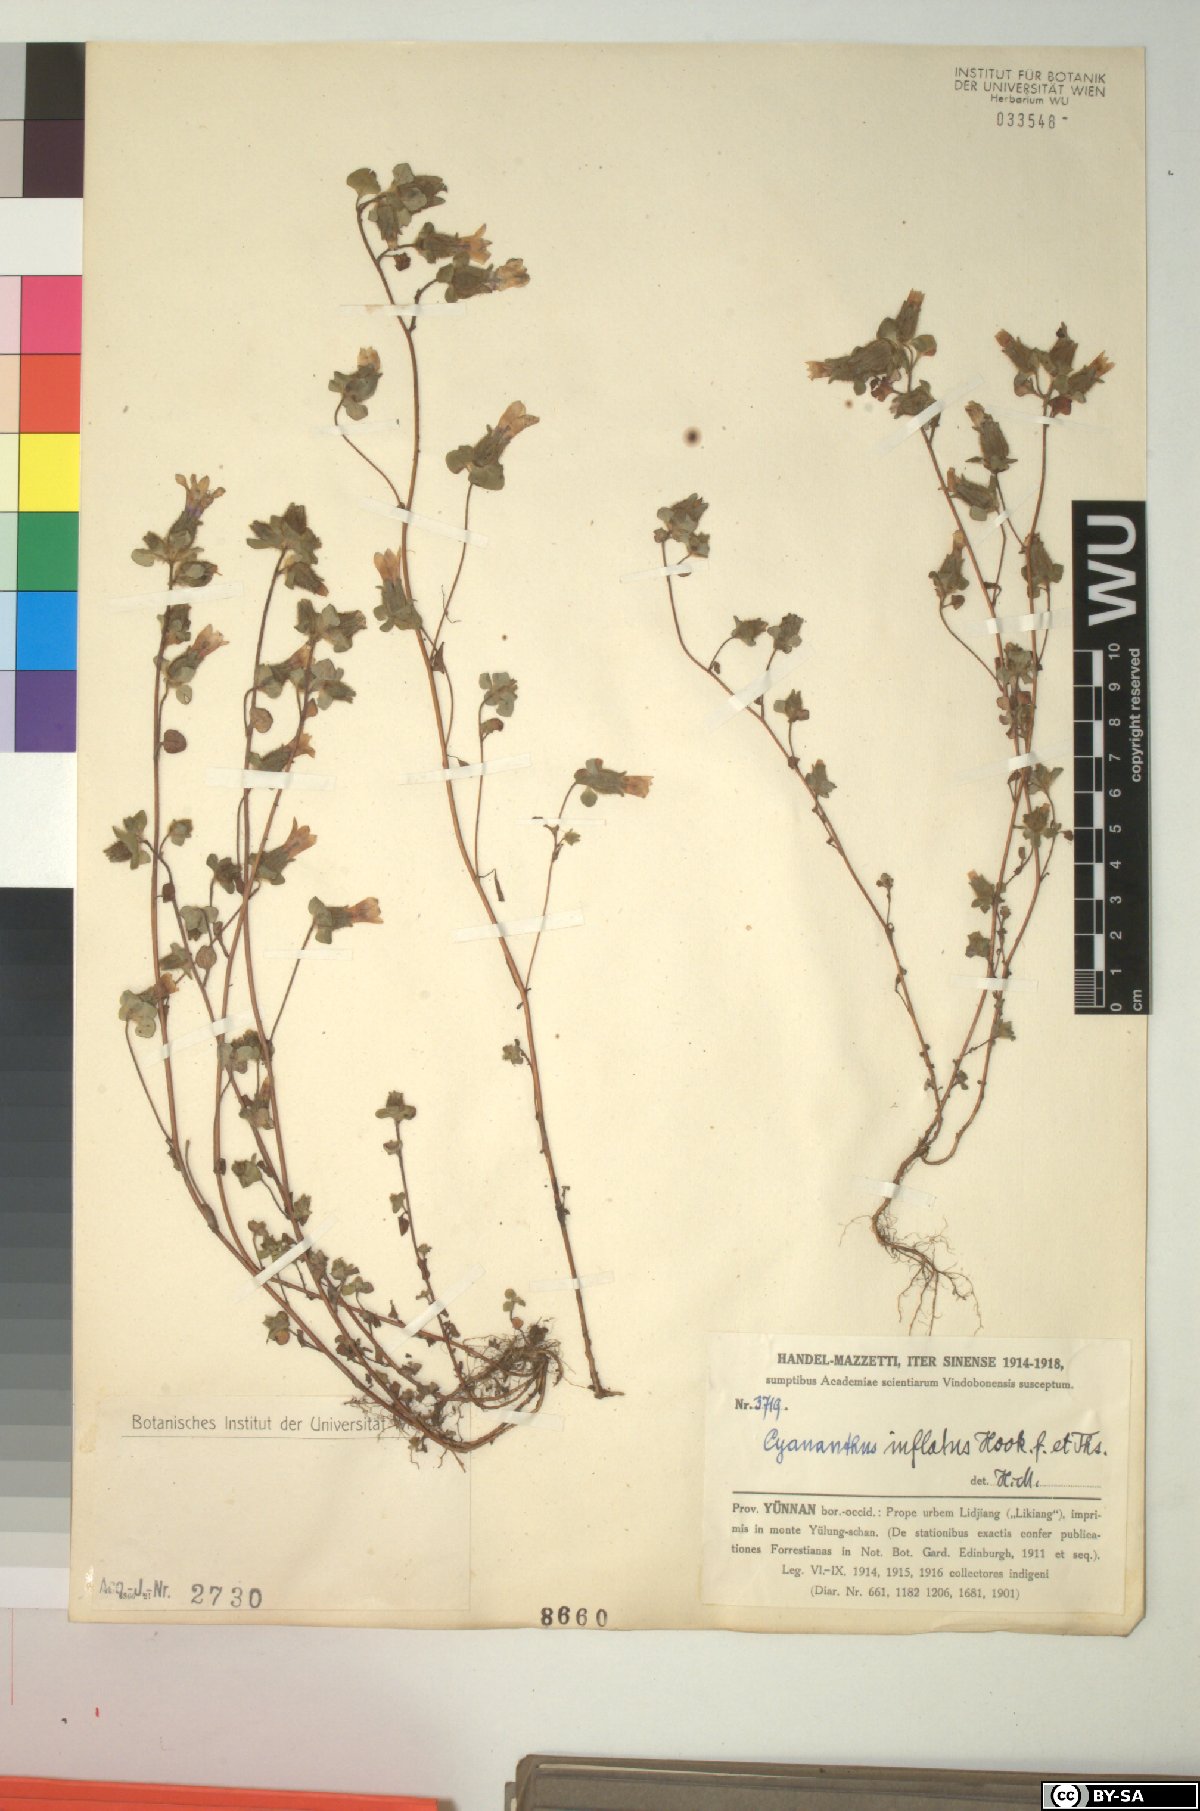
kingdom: Plantae
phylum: Tracheophyta
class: Magnoliopsida
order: Asterales
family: Campanulaceae
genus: Cyananthus
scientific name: Cyananthus inflatus
